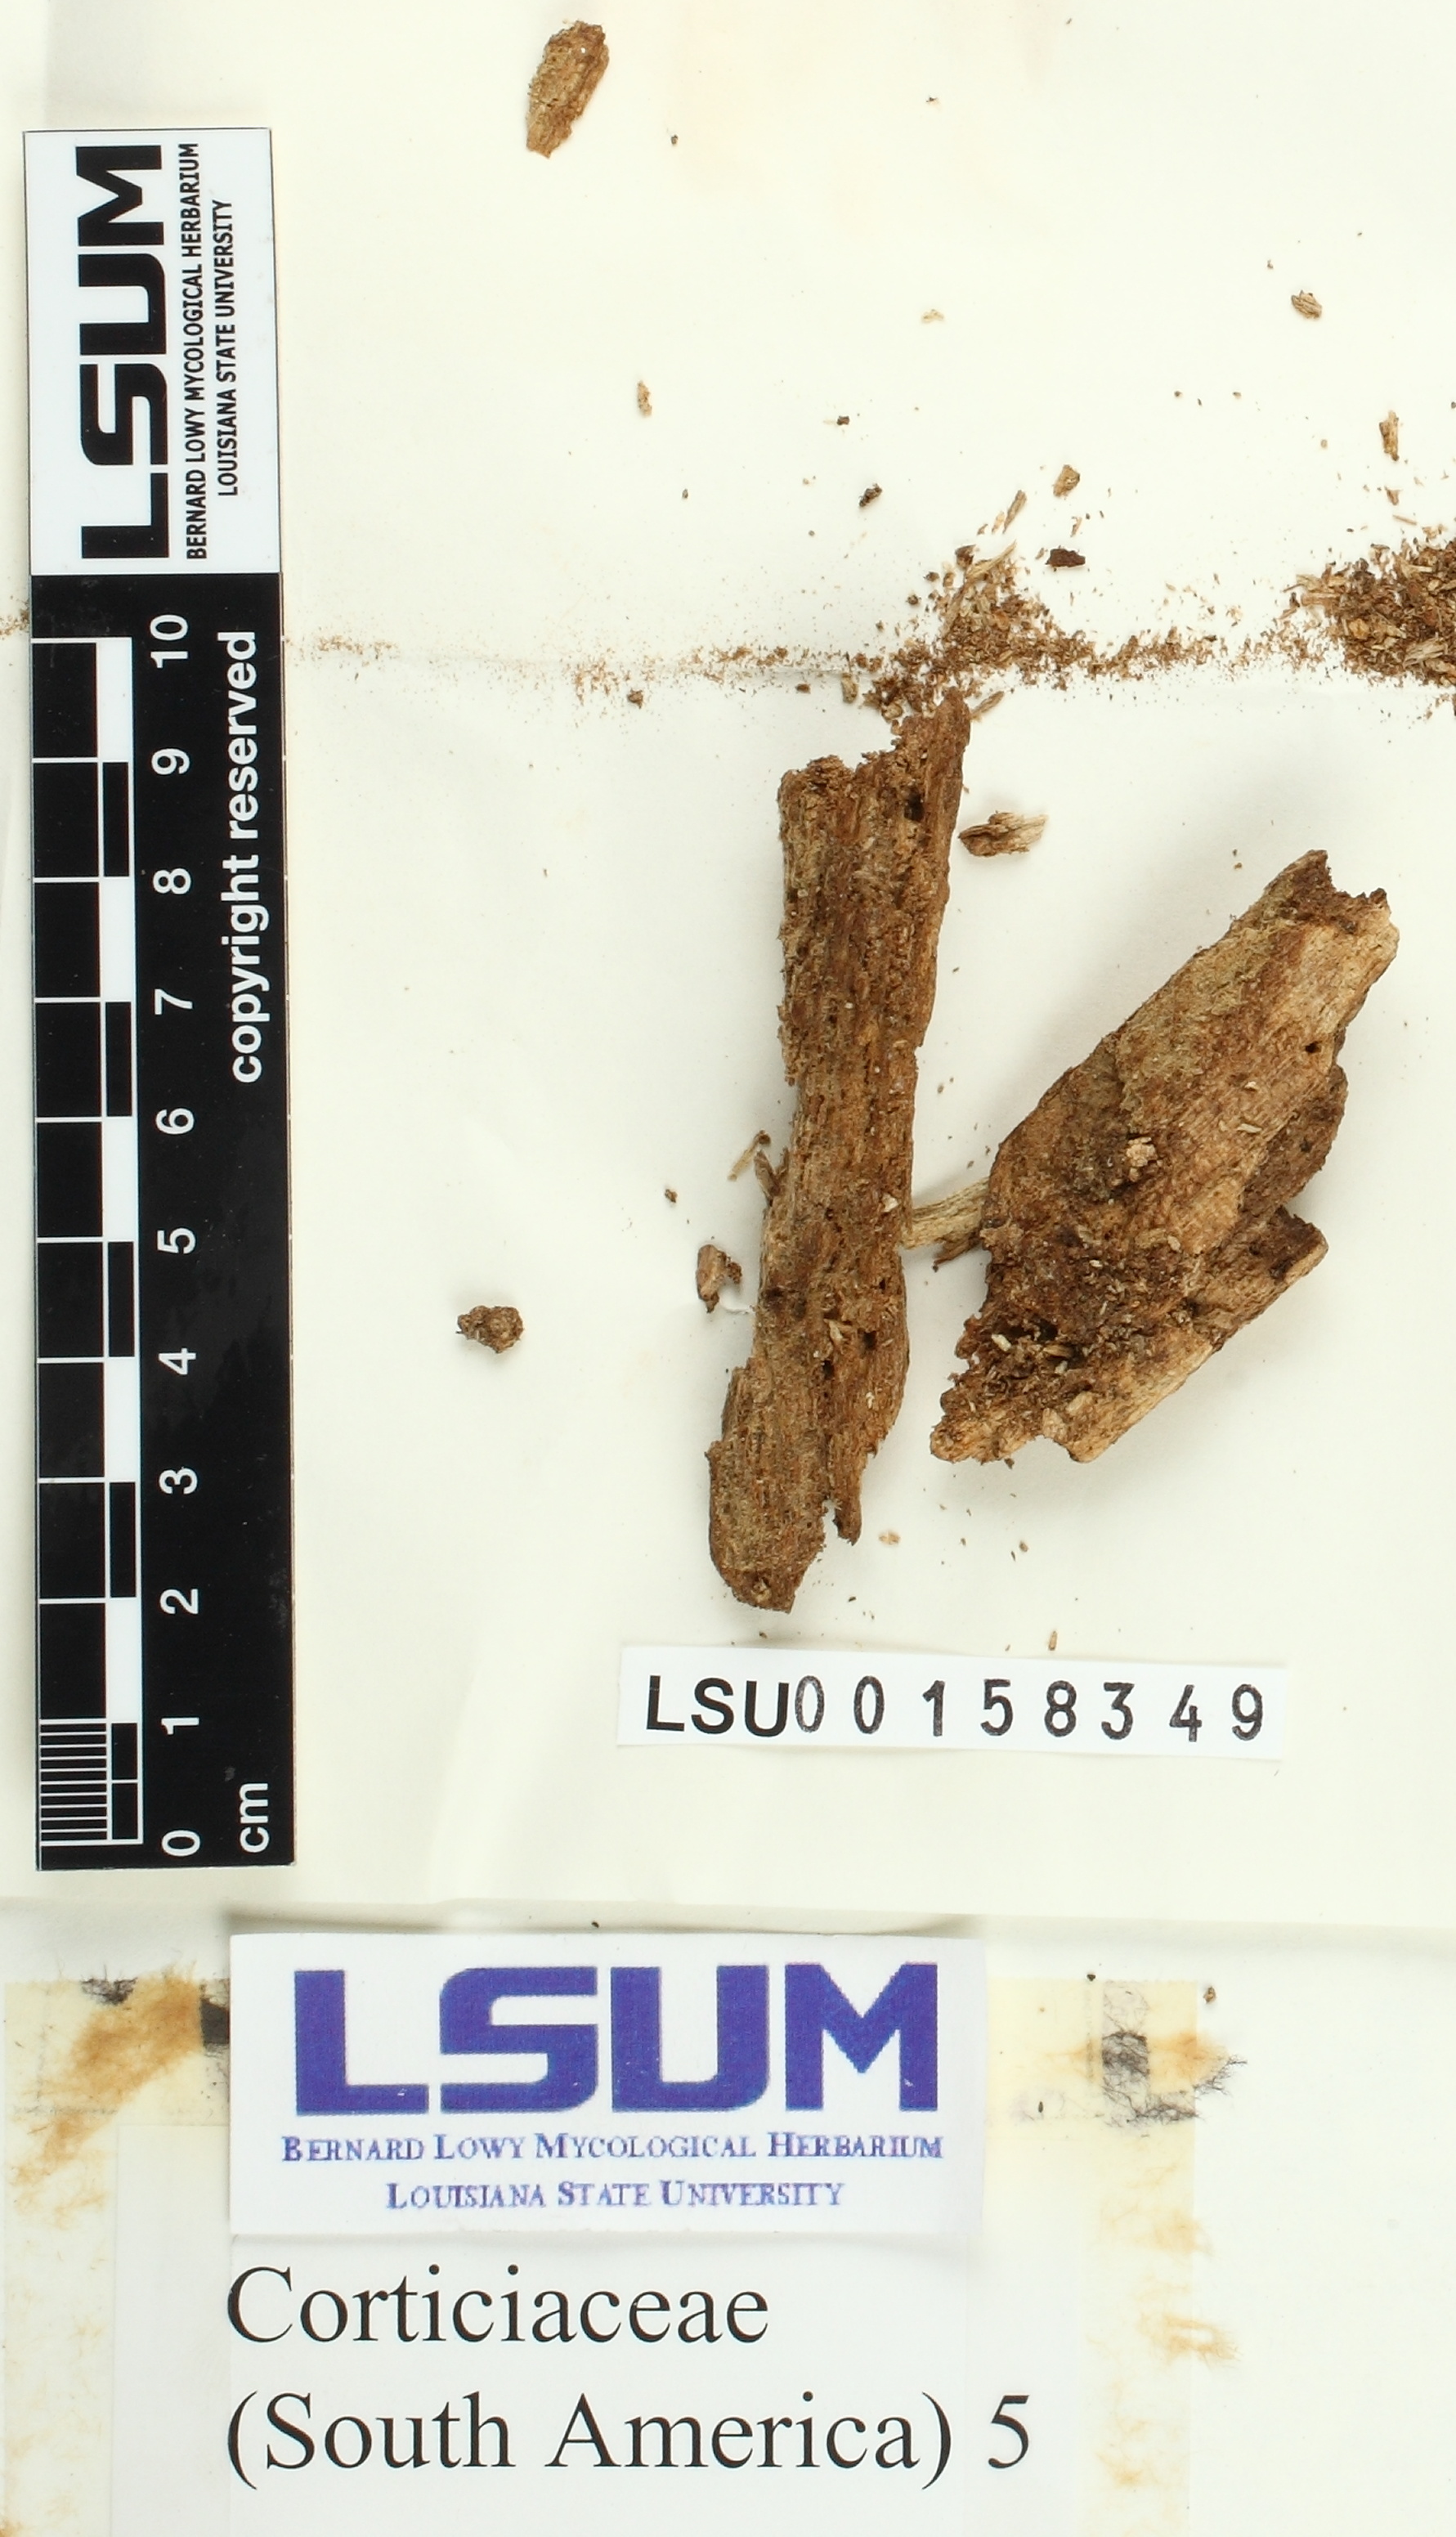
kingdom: Fungi
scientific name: Fungi
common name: Fungi
